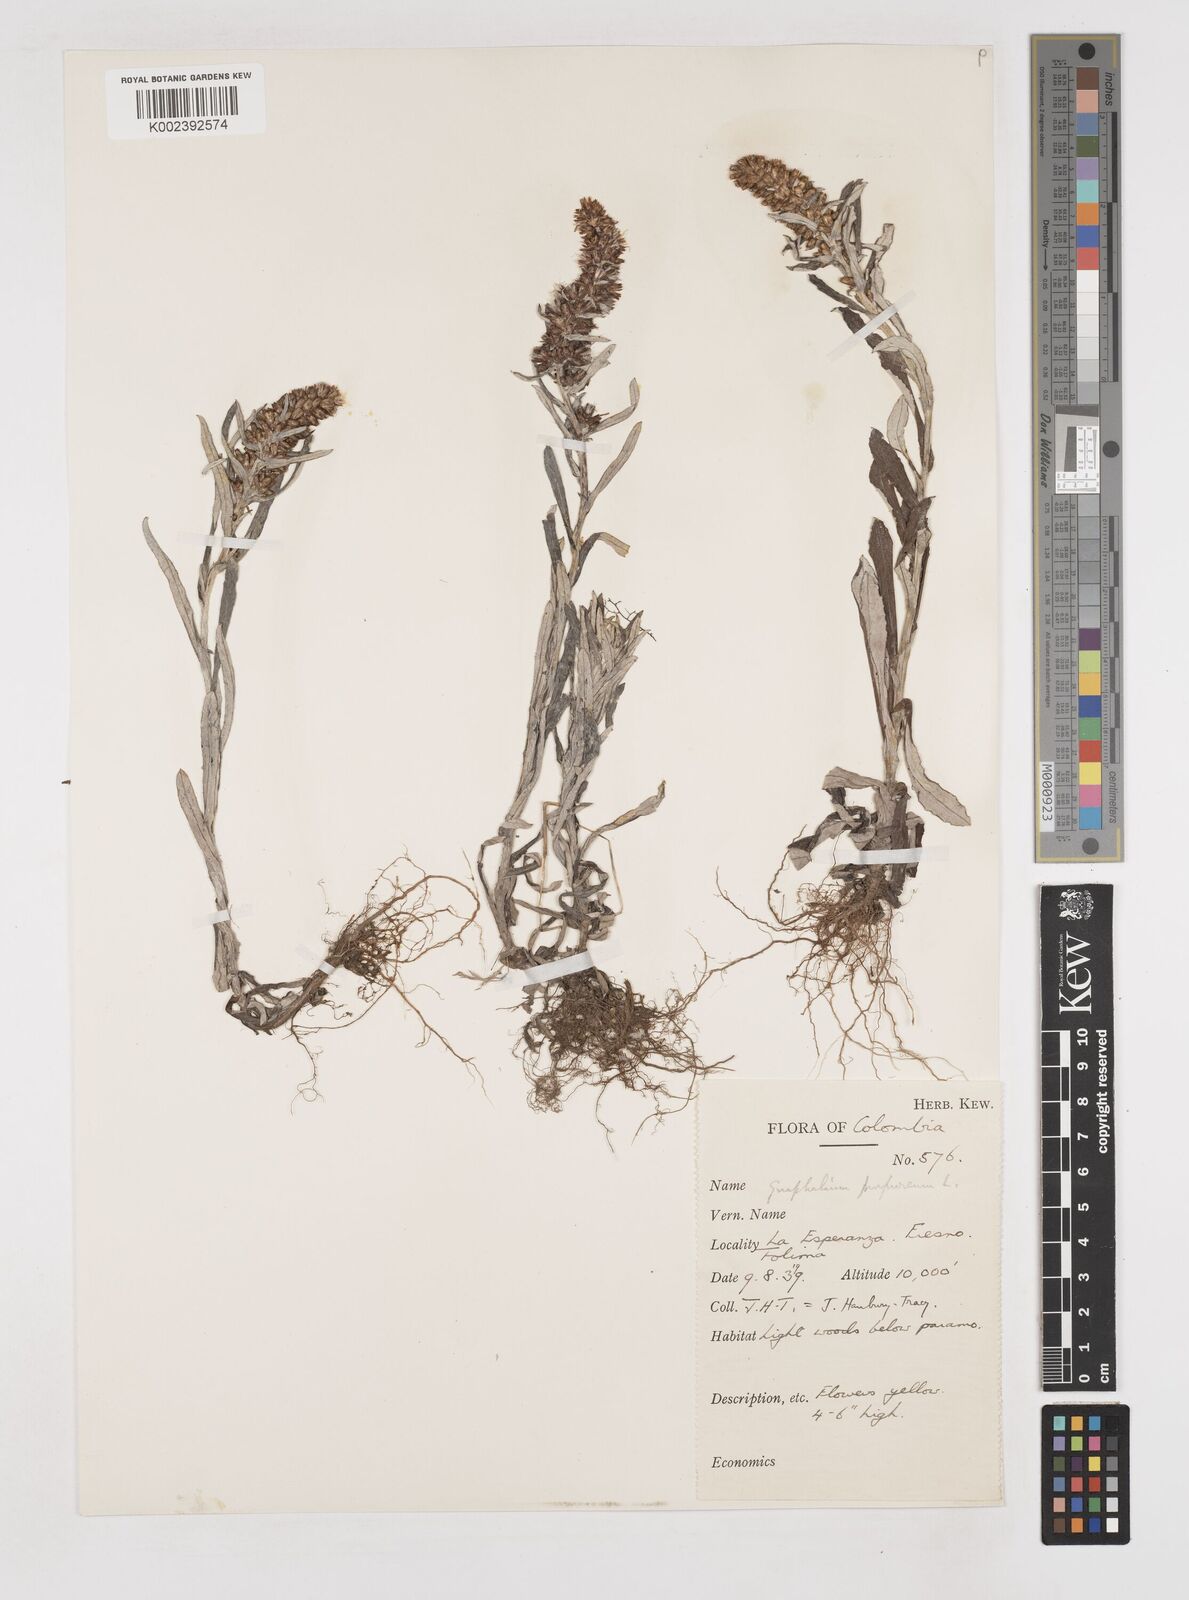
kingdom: Plantae
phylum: Tracheophyta
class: Magnoliopsida
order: Asterales
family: Asteraceae
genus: Pseudognaphalium
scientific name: Pseudognaphalium purpurascens
